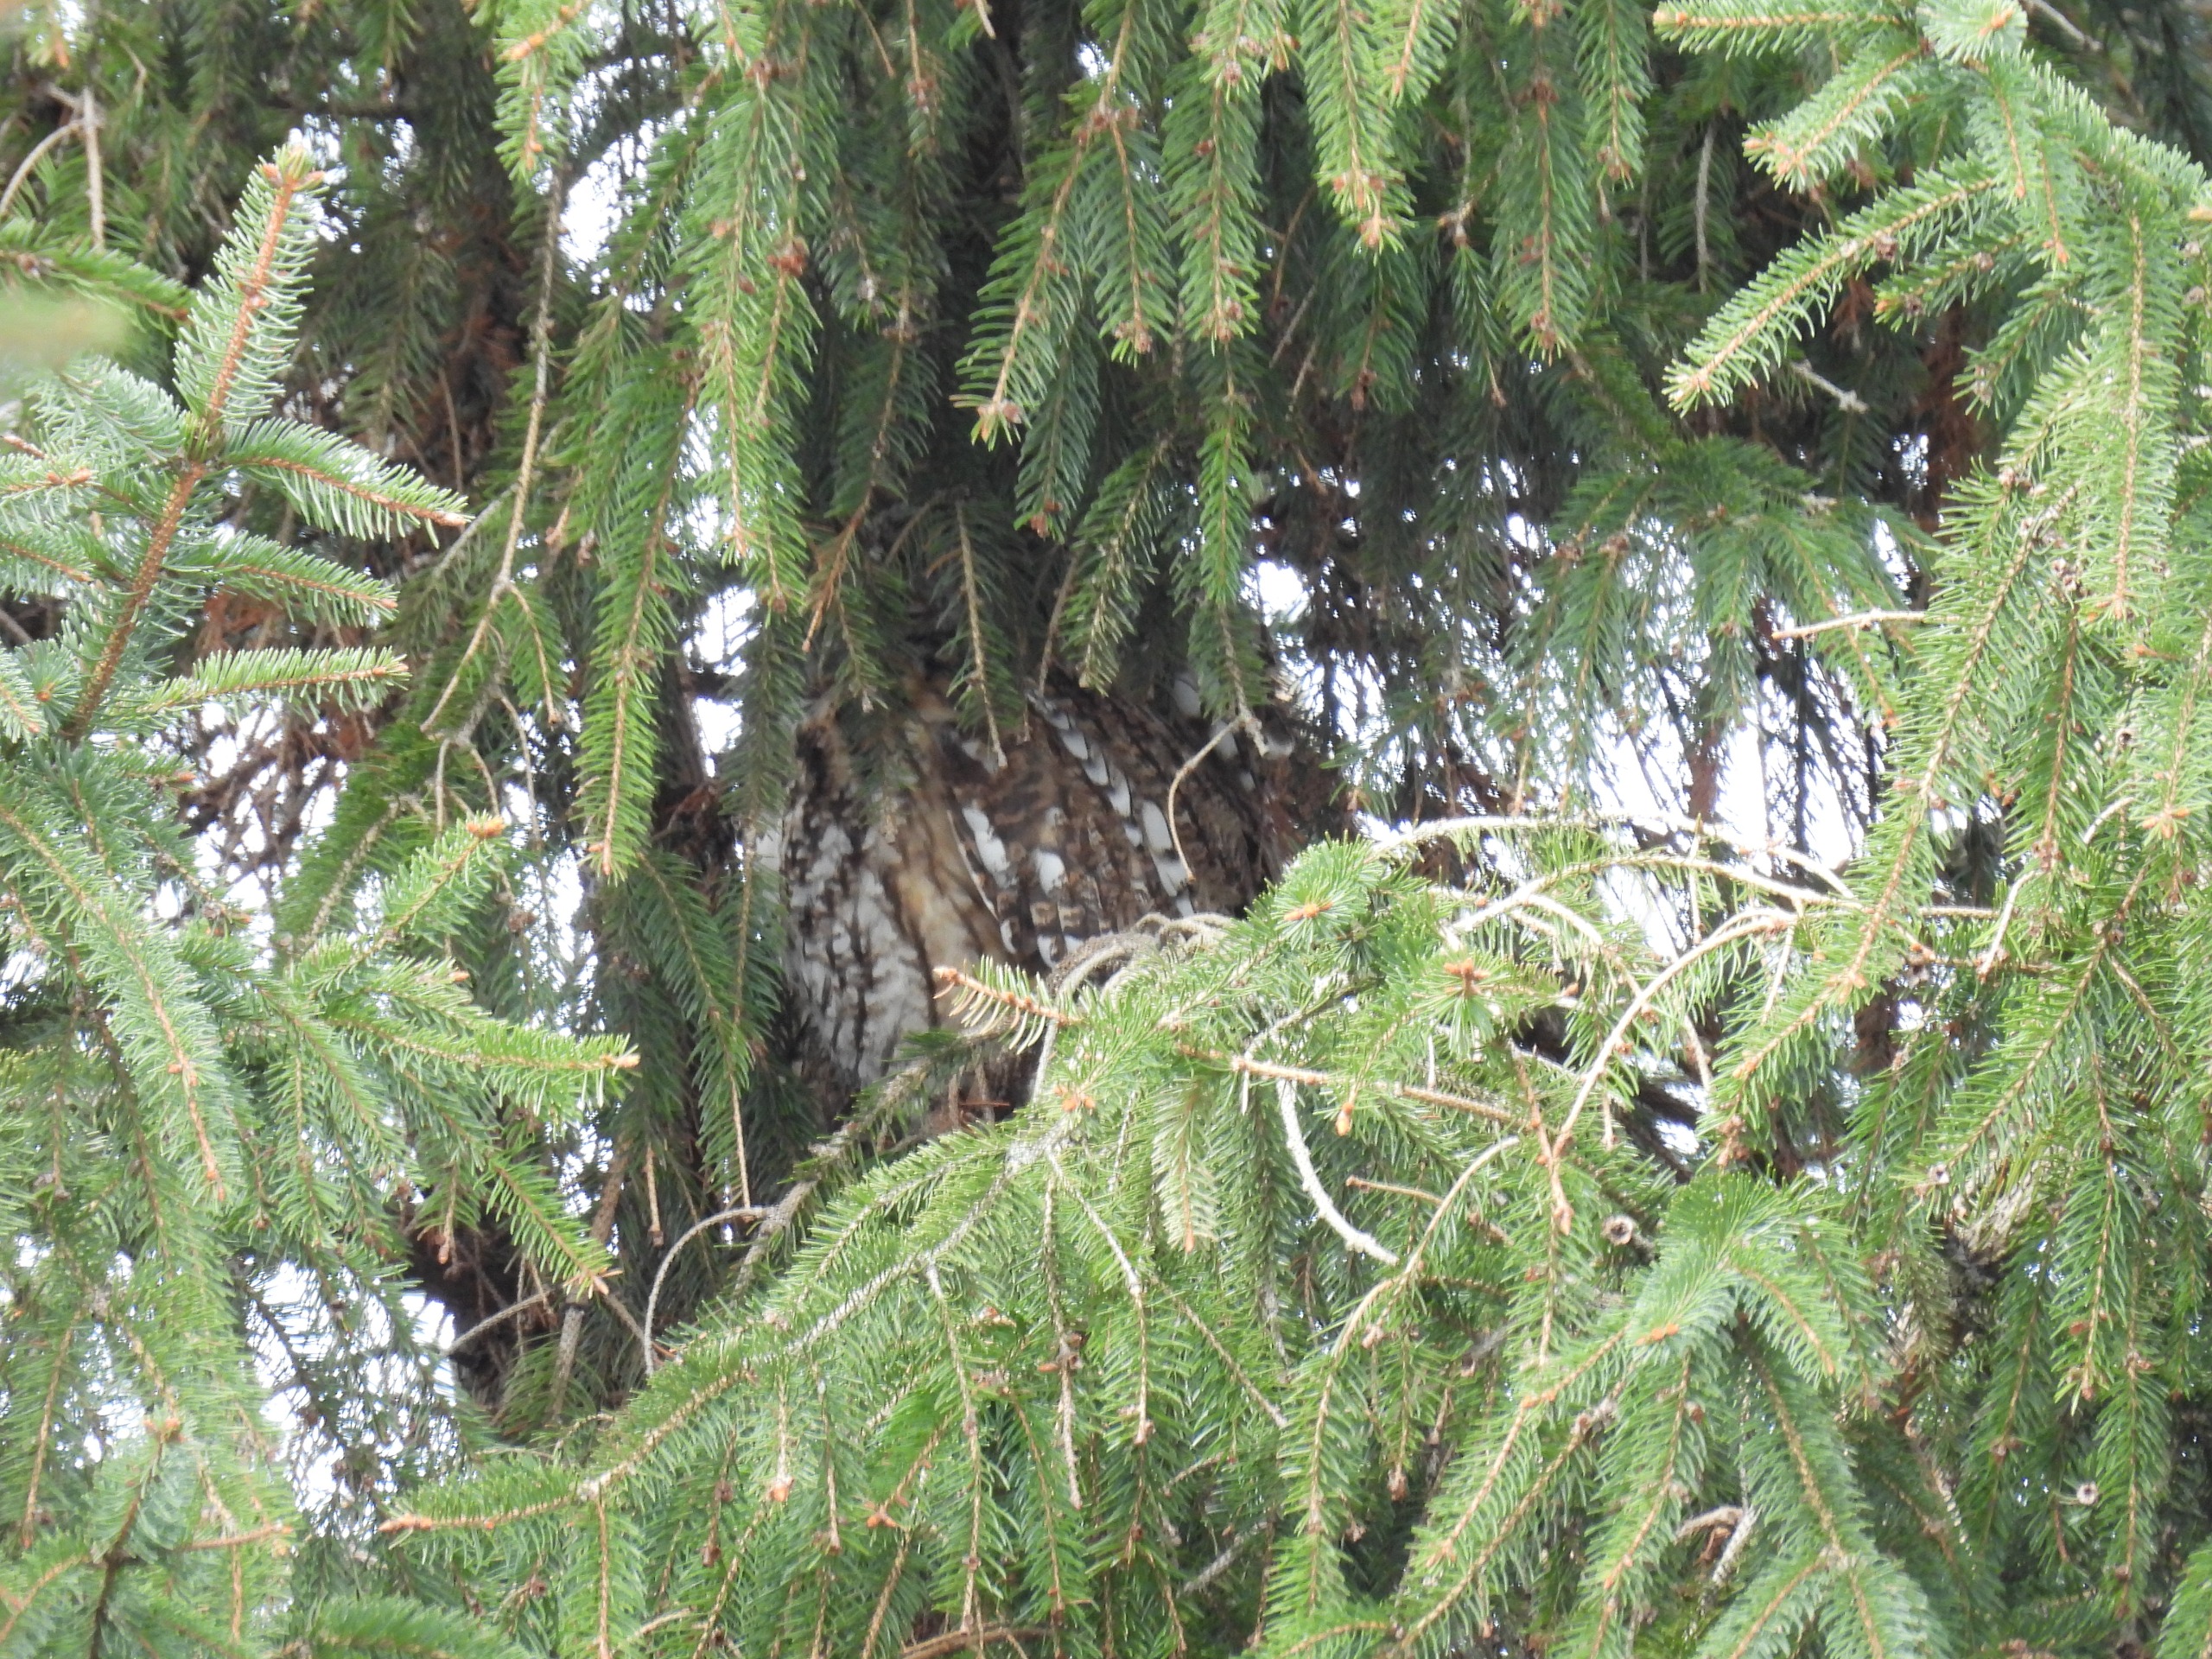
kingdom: Animalia
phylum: Chordata
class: Aves
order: Strigiformes
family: Strigidae
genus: Strix
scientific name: Strix aluco
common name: Natugle
